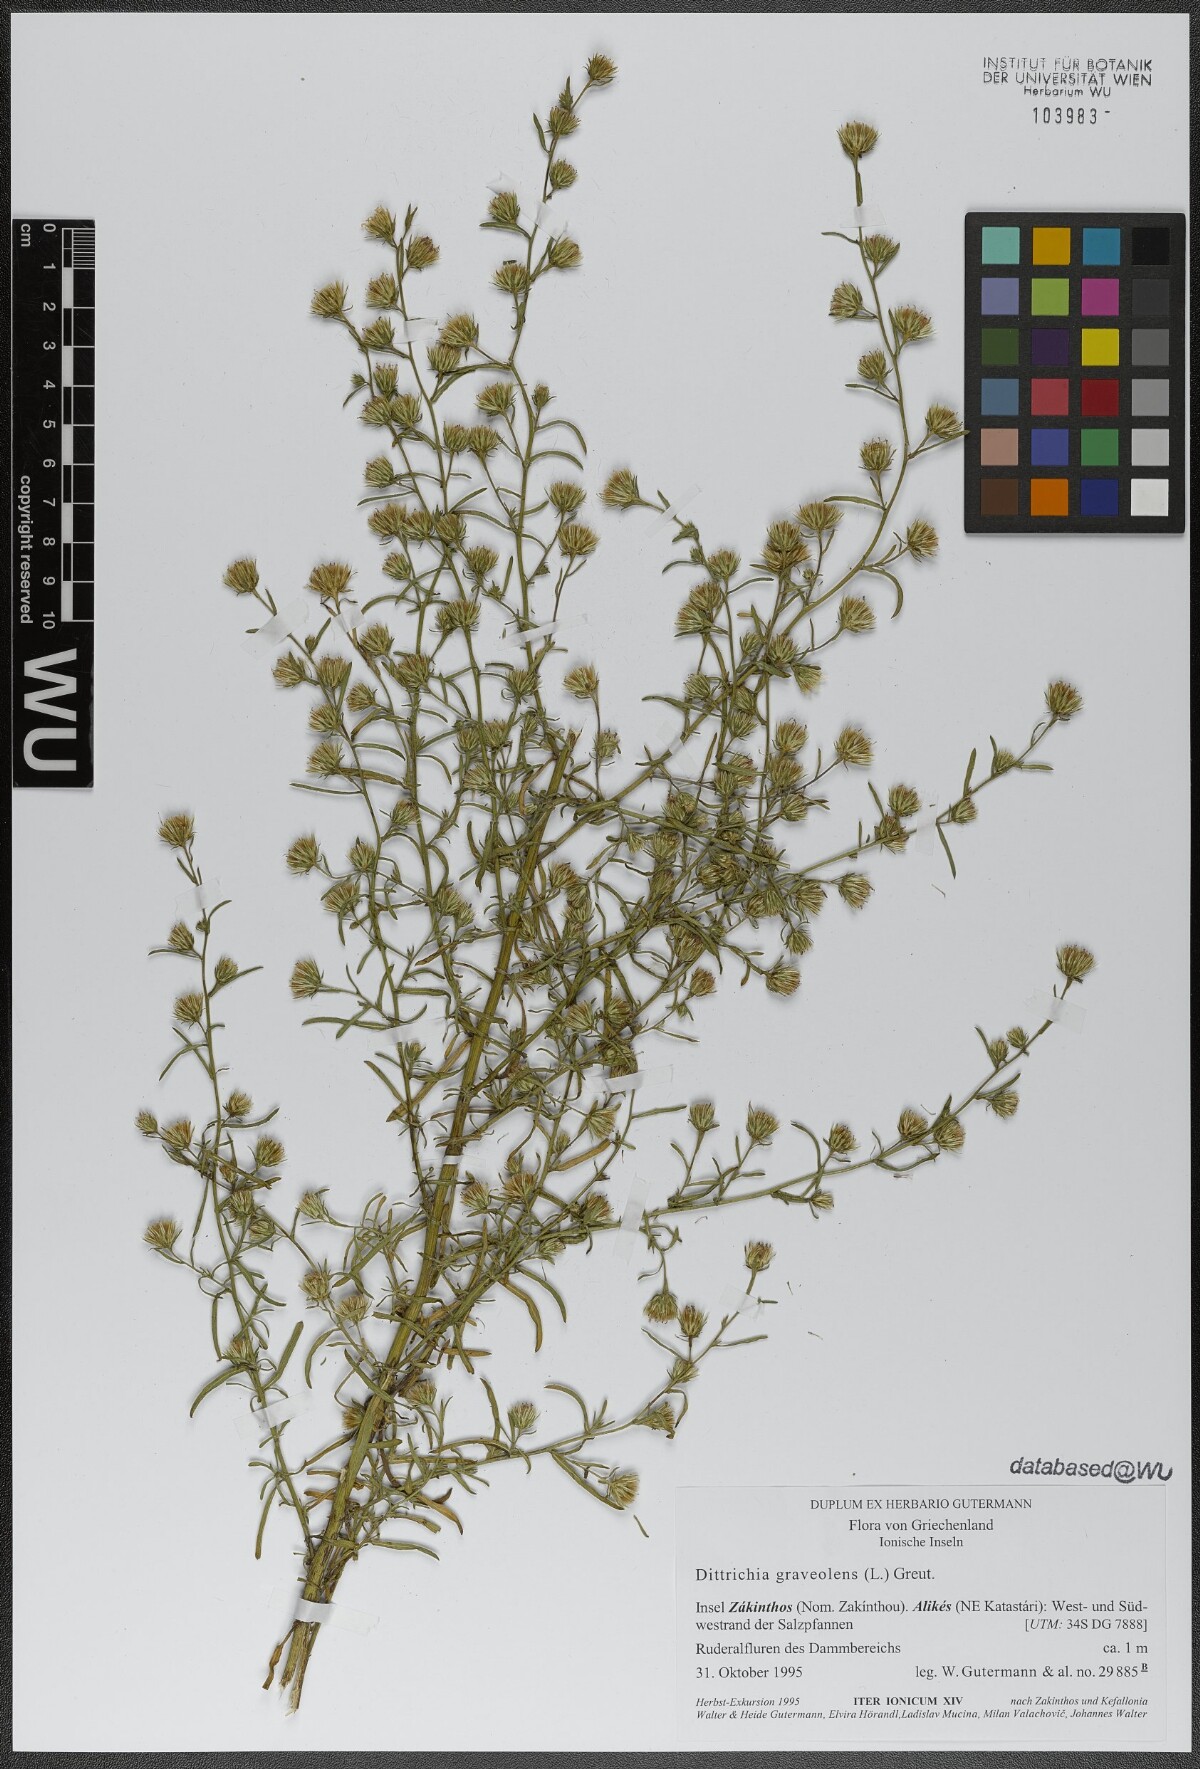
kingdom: Plantae
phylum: Tracheophyta
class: Magnoliopsida
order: Asterales
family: Asteraceae
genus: Dittrichia
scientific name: Dittrichia graveolens
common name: Stinking fleabane
